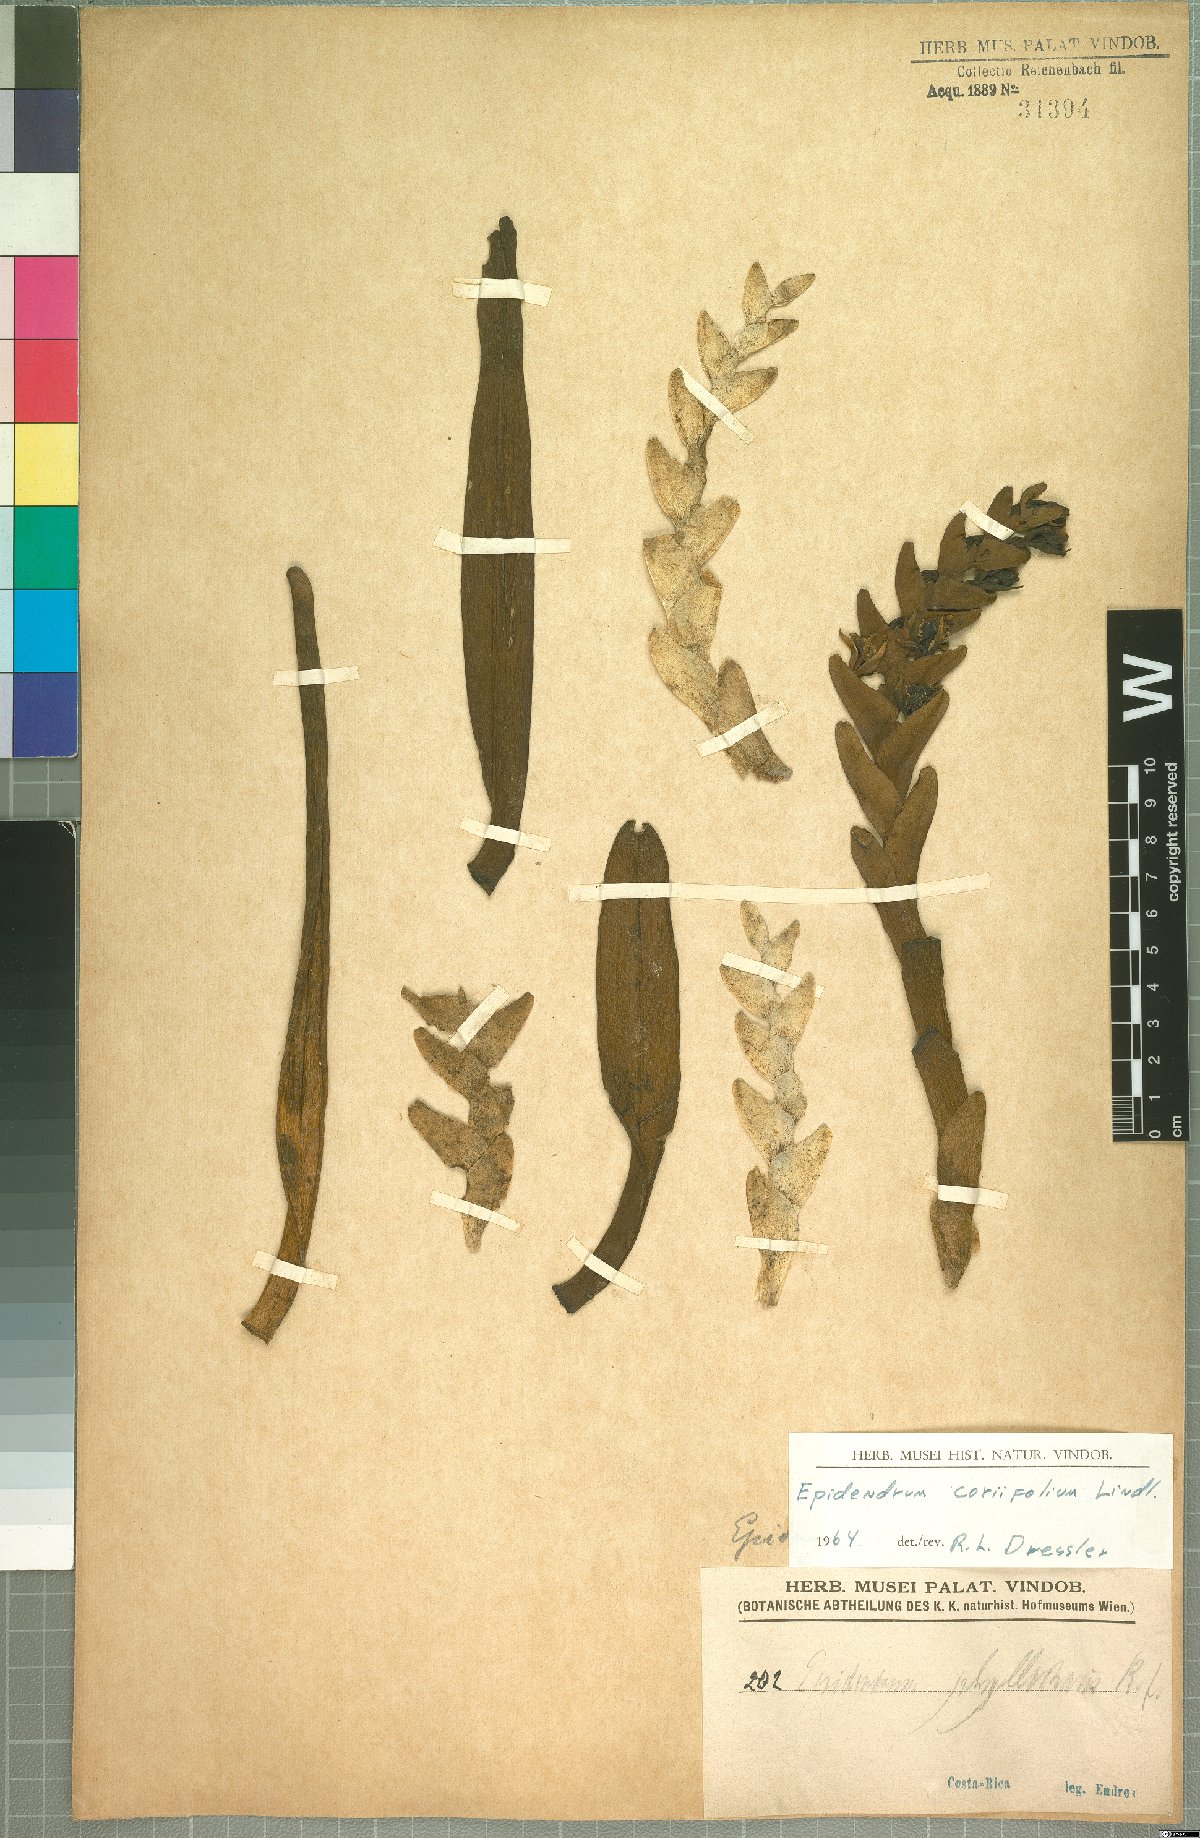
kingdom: Plantae
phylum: Tracheophyta
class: Liliopsida
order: Asparagales
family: Orchidaceae
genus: Epidendrum
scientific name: Epidendrum coriifolium
